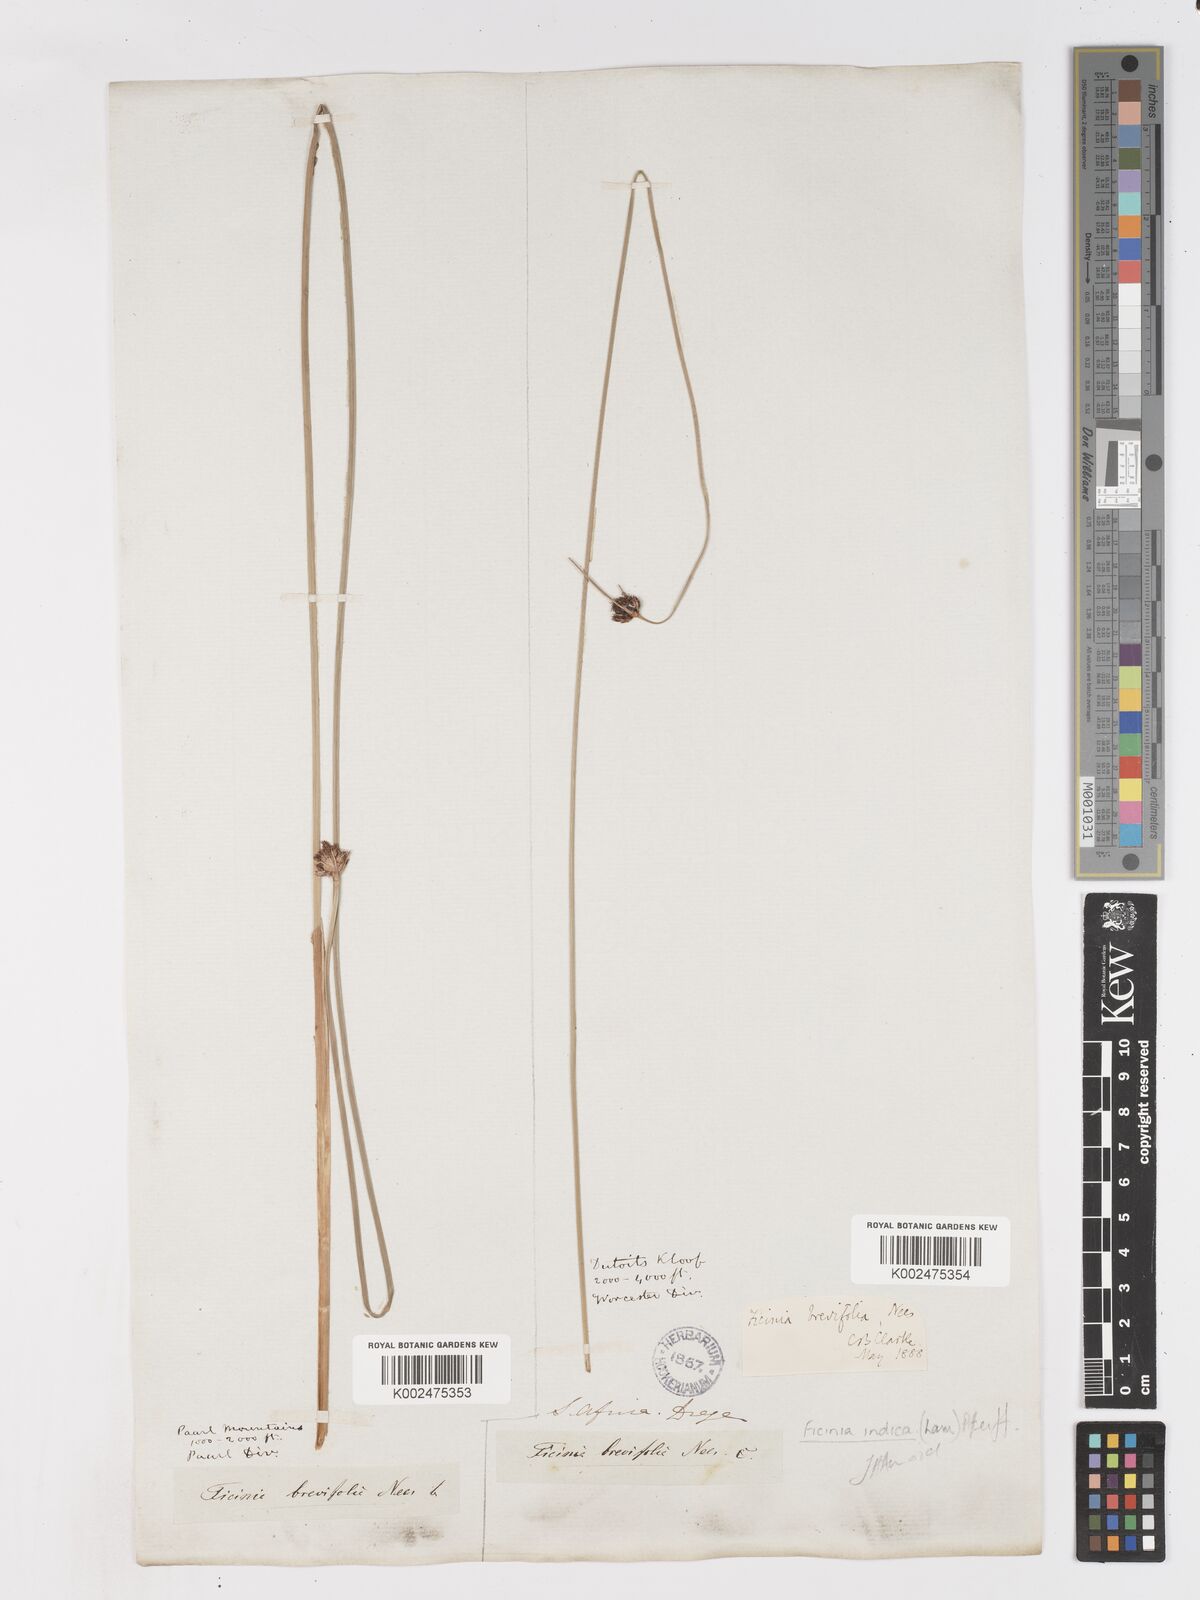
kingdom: Plantae
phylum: Tracheophyta
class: Liliopsida
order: Poales
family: Cyperaceae
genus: Ficinia
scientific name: Ficinia brevifolia
